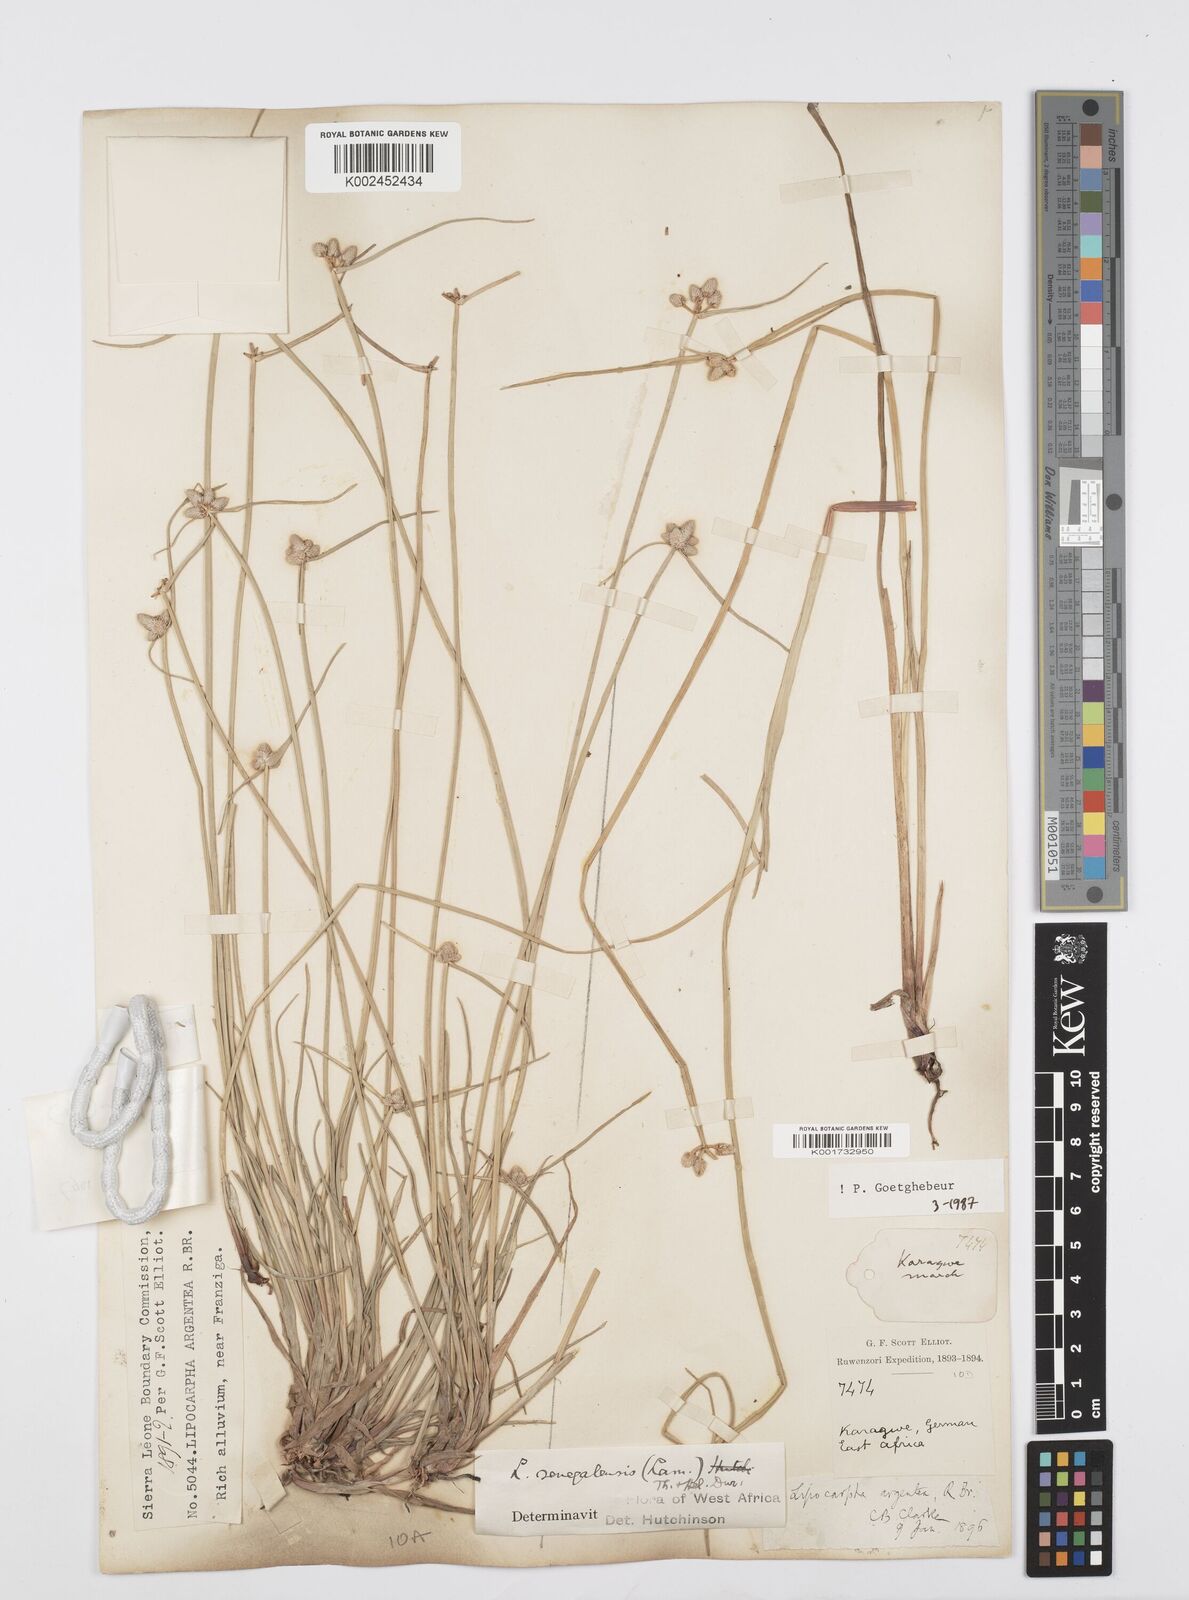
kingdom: Plantae
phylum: Tracheophyta
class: Liliopsida
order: Poales
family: Cyperaceae
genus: Cyperus
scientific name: Cyperus albescens
